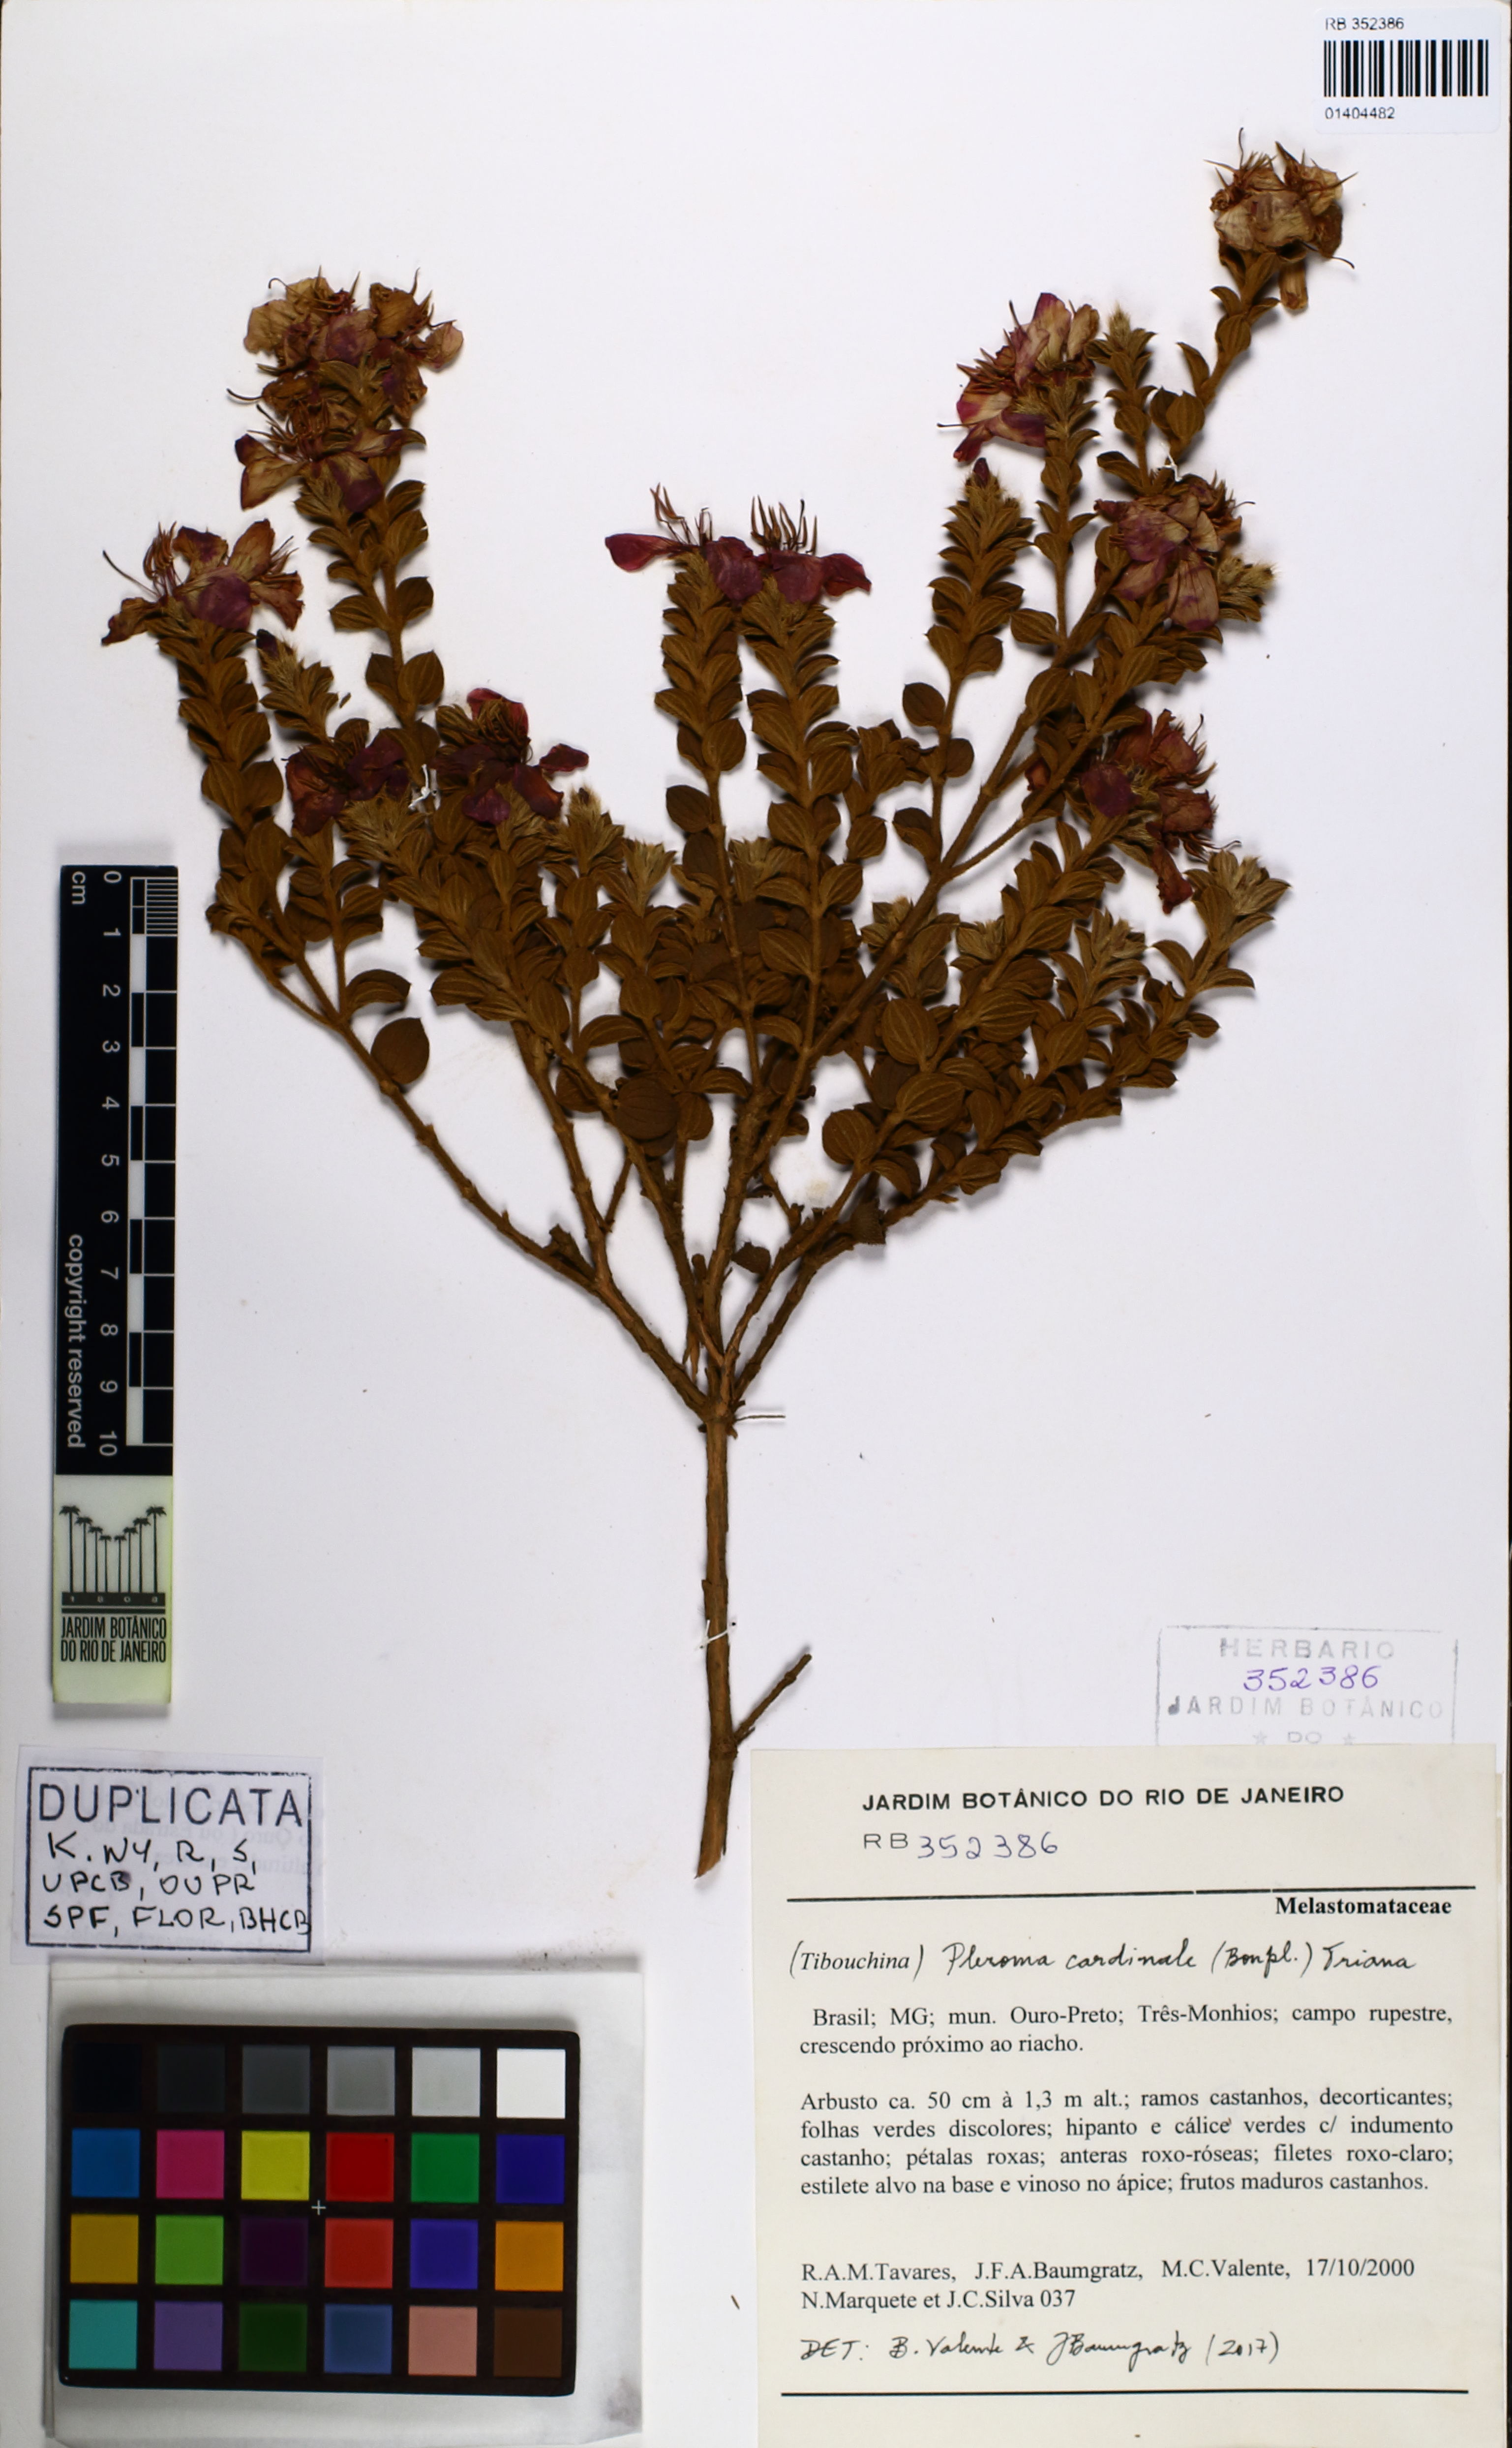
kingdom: Plantae
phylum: Tracheophyta
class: Magnoliopsida
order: Myrtales
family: Melastomataceae
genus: Chaetogastra
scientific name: Chaetogastra cardinalis
